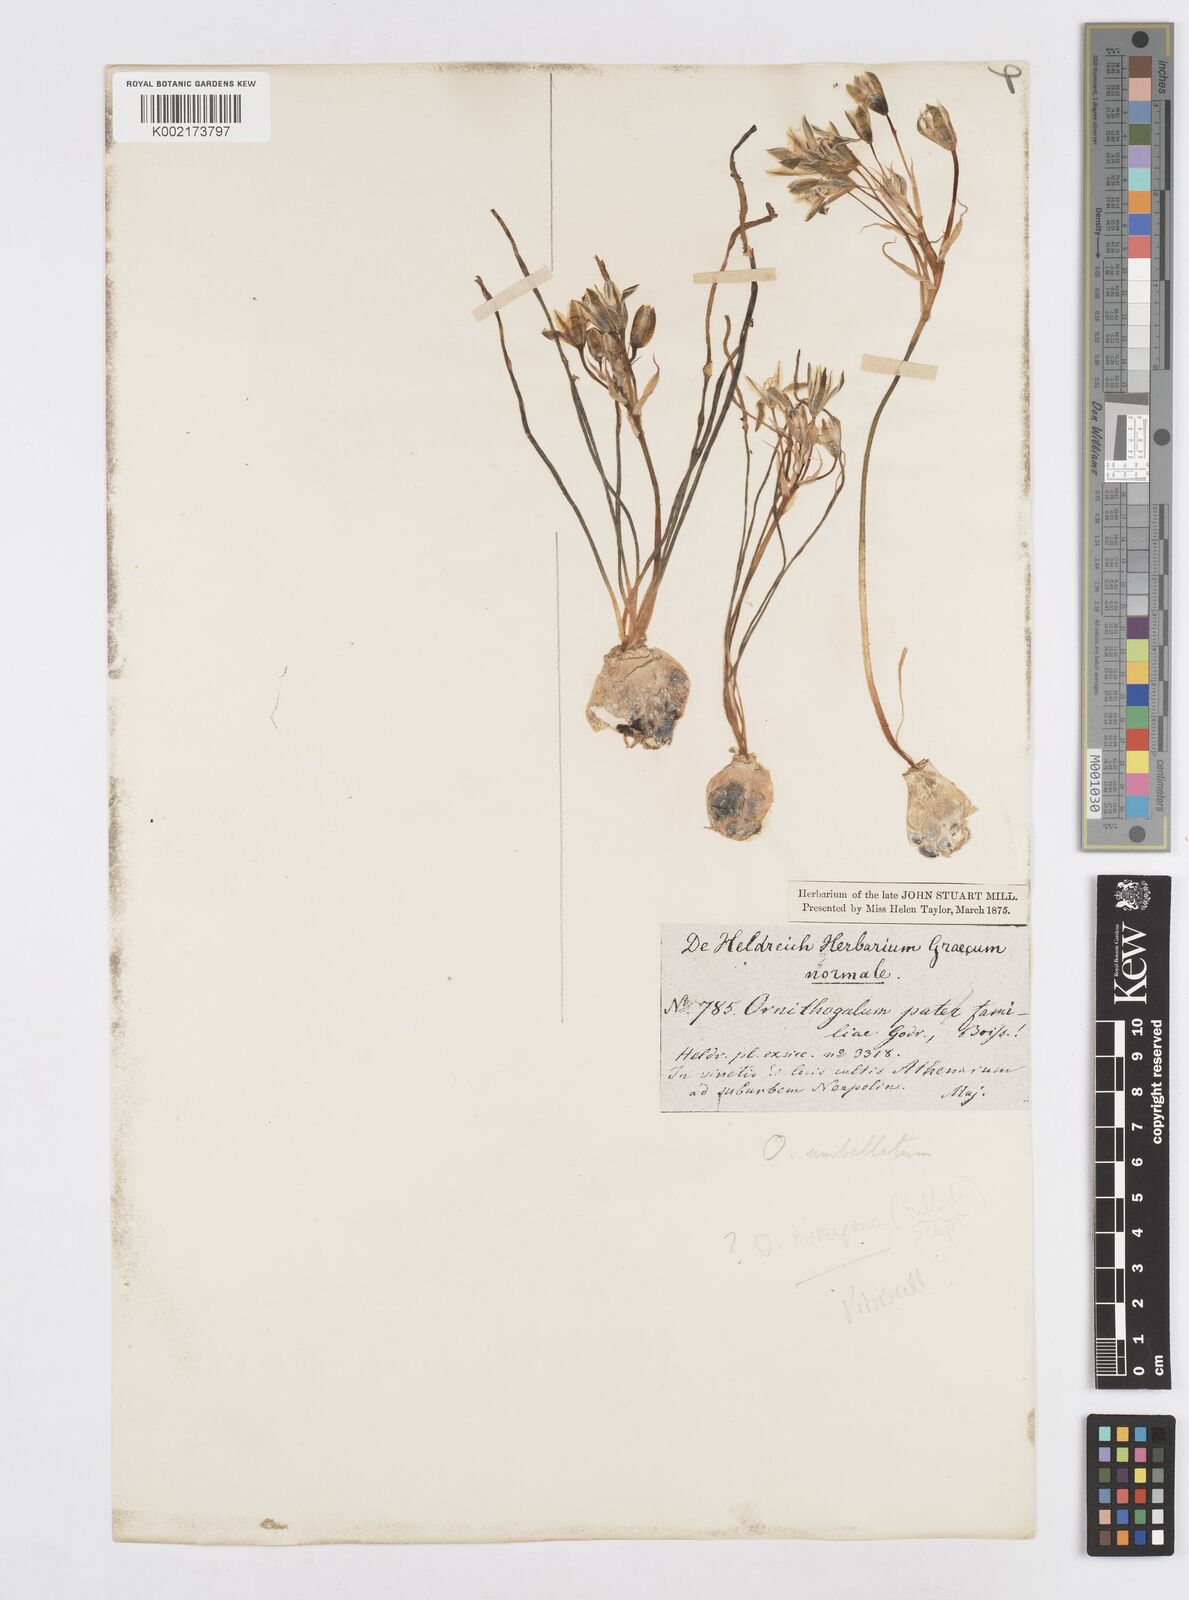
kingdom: Plantae
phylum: Tracheophyta
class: Liliopsida
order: Asparagales
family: Asparagaceae
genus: Ornithogalum
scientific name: Ornithogalum umbellatum
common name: Garden star-of-bethlehem
